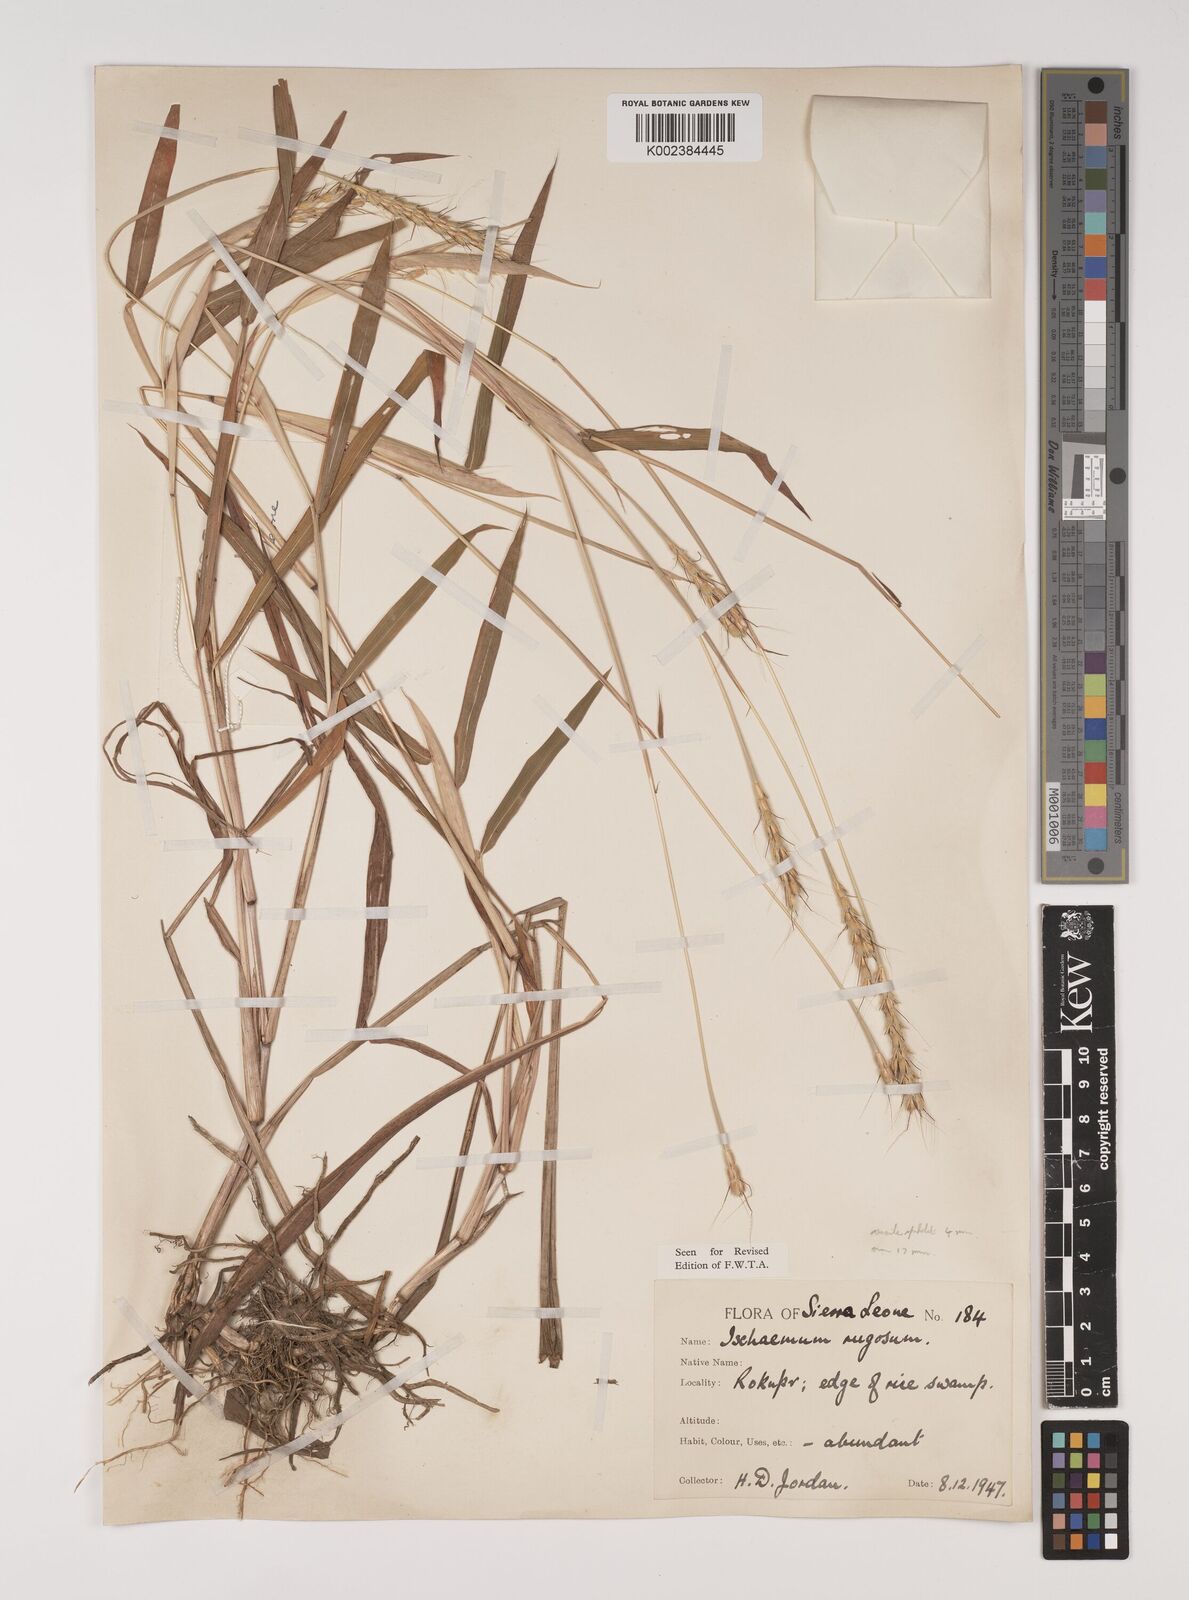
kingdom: Plantae
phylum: Tracheophyta
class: Liliopsida
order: Poales
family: Poaceae
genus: Ischaemum
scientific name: Ischaemum rugosum
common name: Saramatta grass
